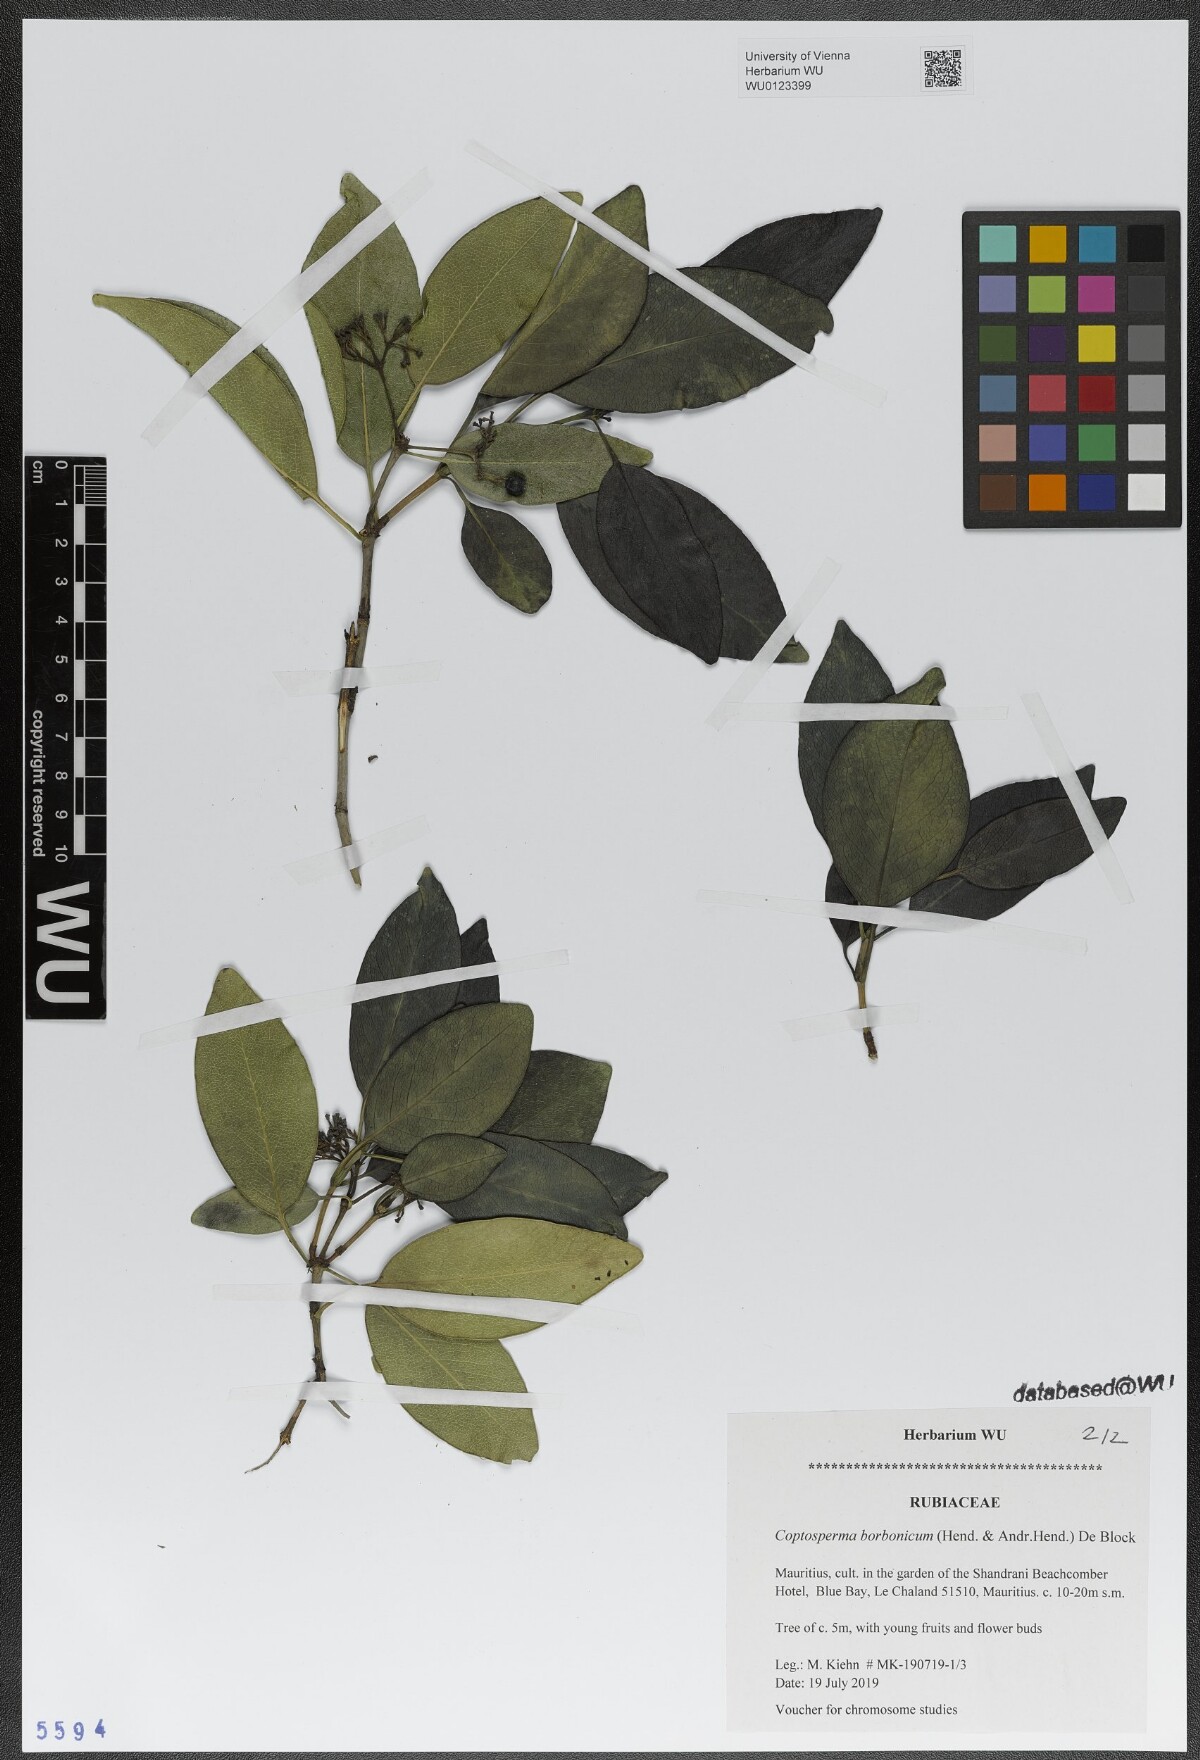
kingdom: Plantae
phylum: Tracheophyta
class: Magnoliopsida
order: Gentianales
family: Rubiaceae
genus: Coptosperma
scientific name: Coptosperma borbonicum
